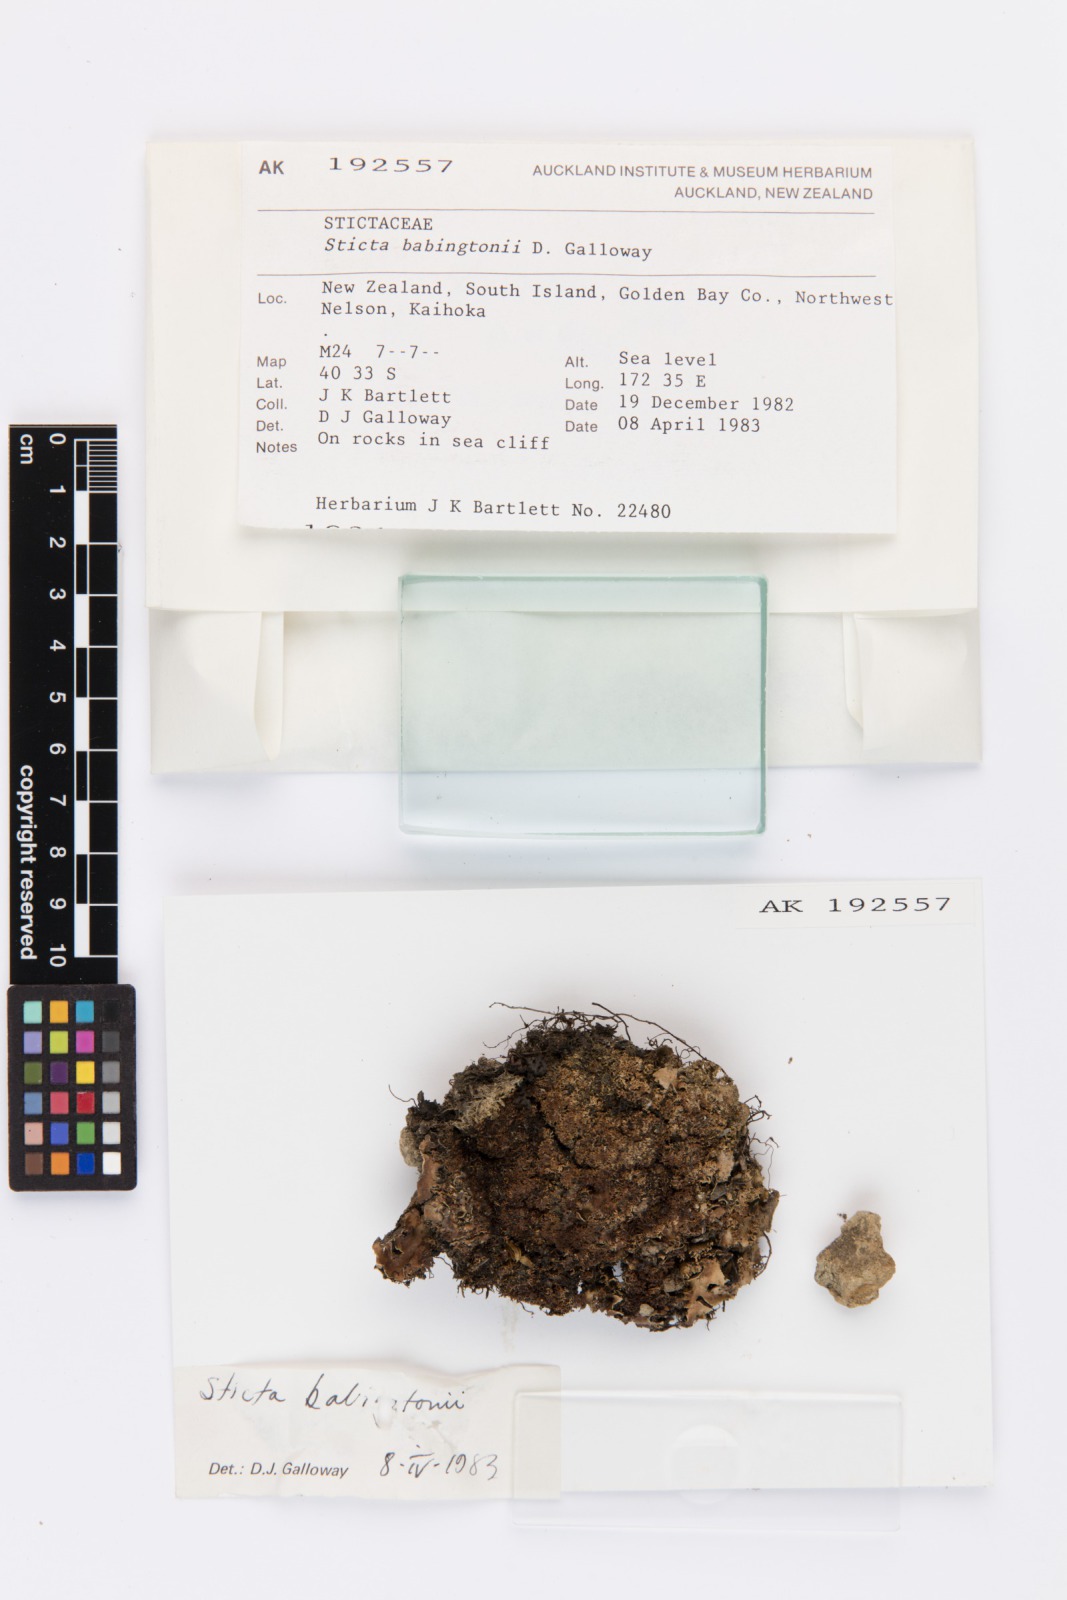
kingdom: Fungi
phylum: Ascomycota
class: Lecanoromycetes
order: Peltigerales
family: Lobariaceae
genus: Sticta
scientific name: Sticta babingtonii
